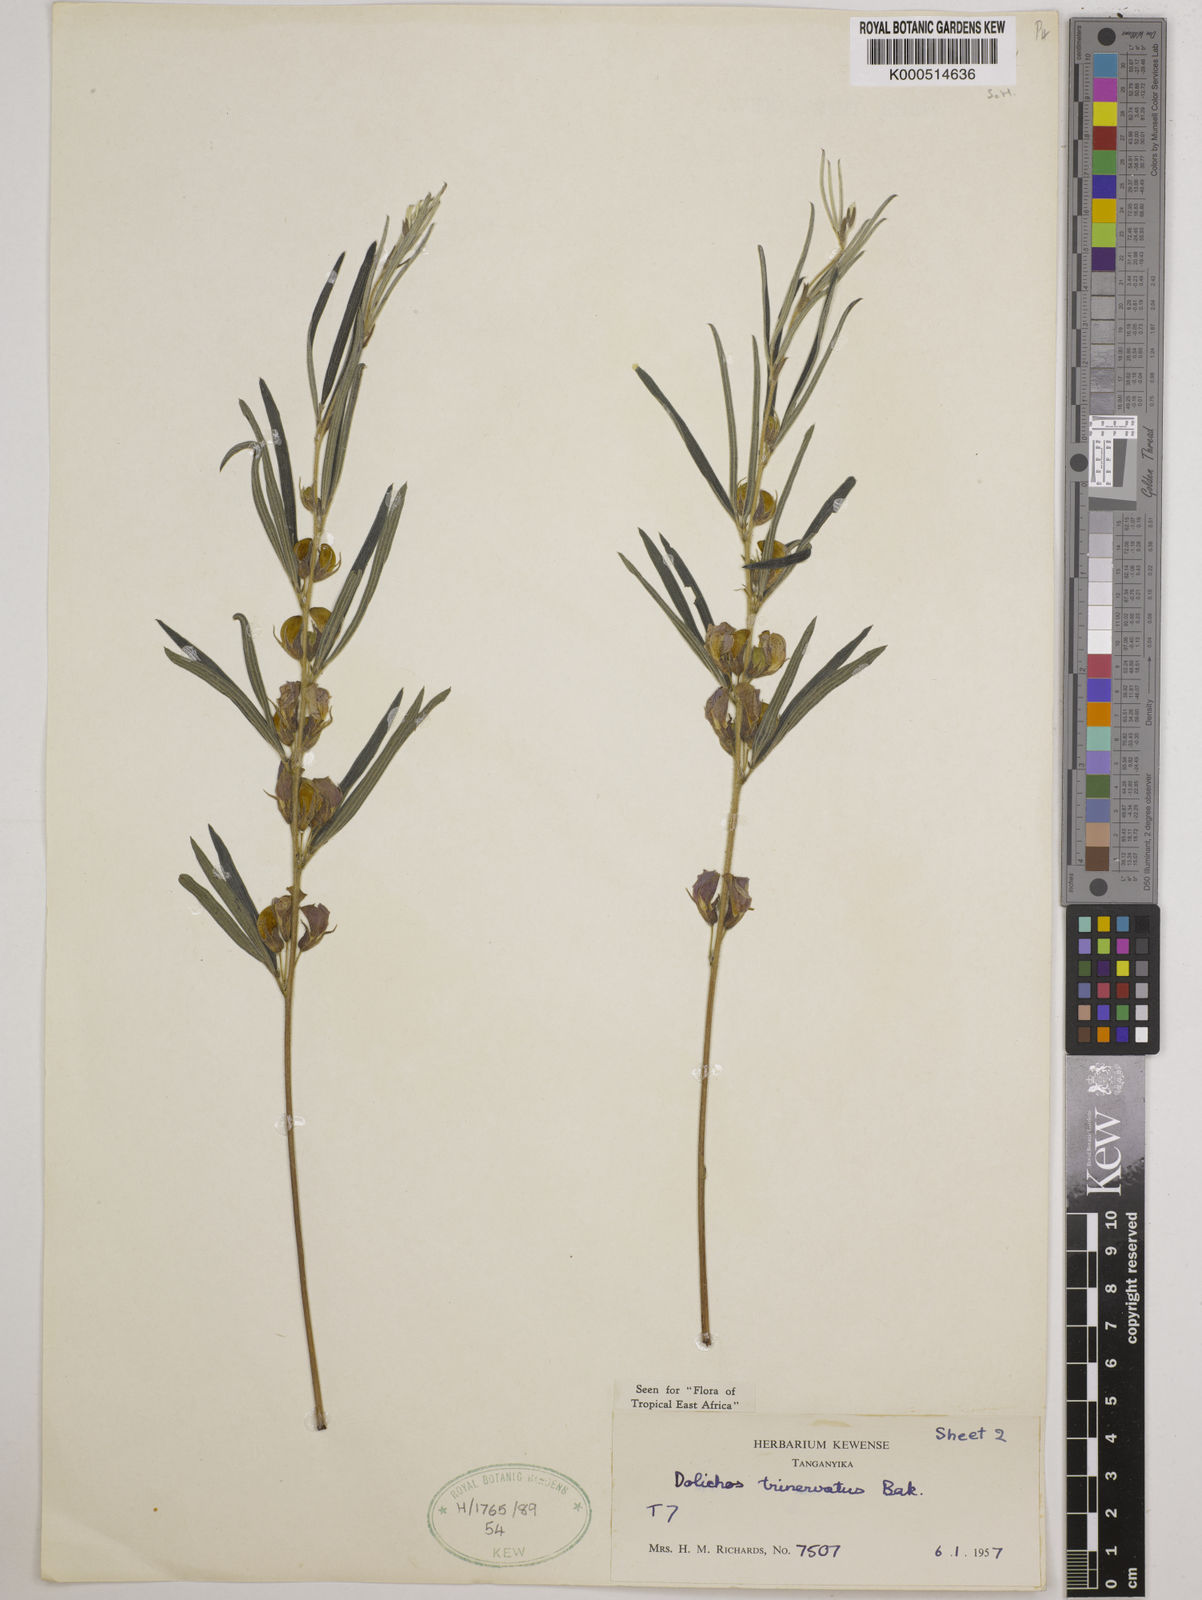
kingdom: Plantae
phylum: Tracheophyta
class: Magnoliopsida
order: Fabales
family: Fabaceae
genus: Dolichos
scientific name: Dolichos trinervatus
